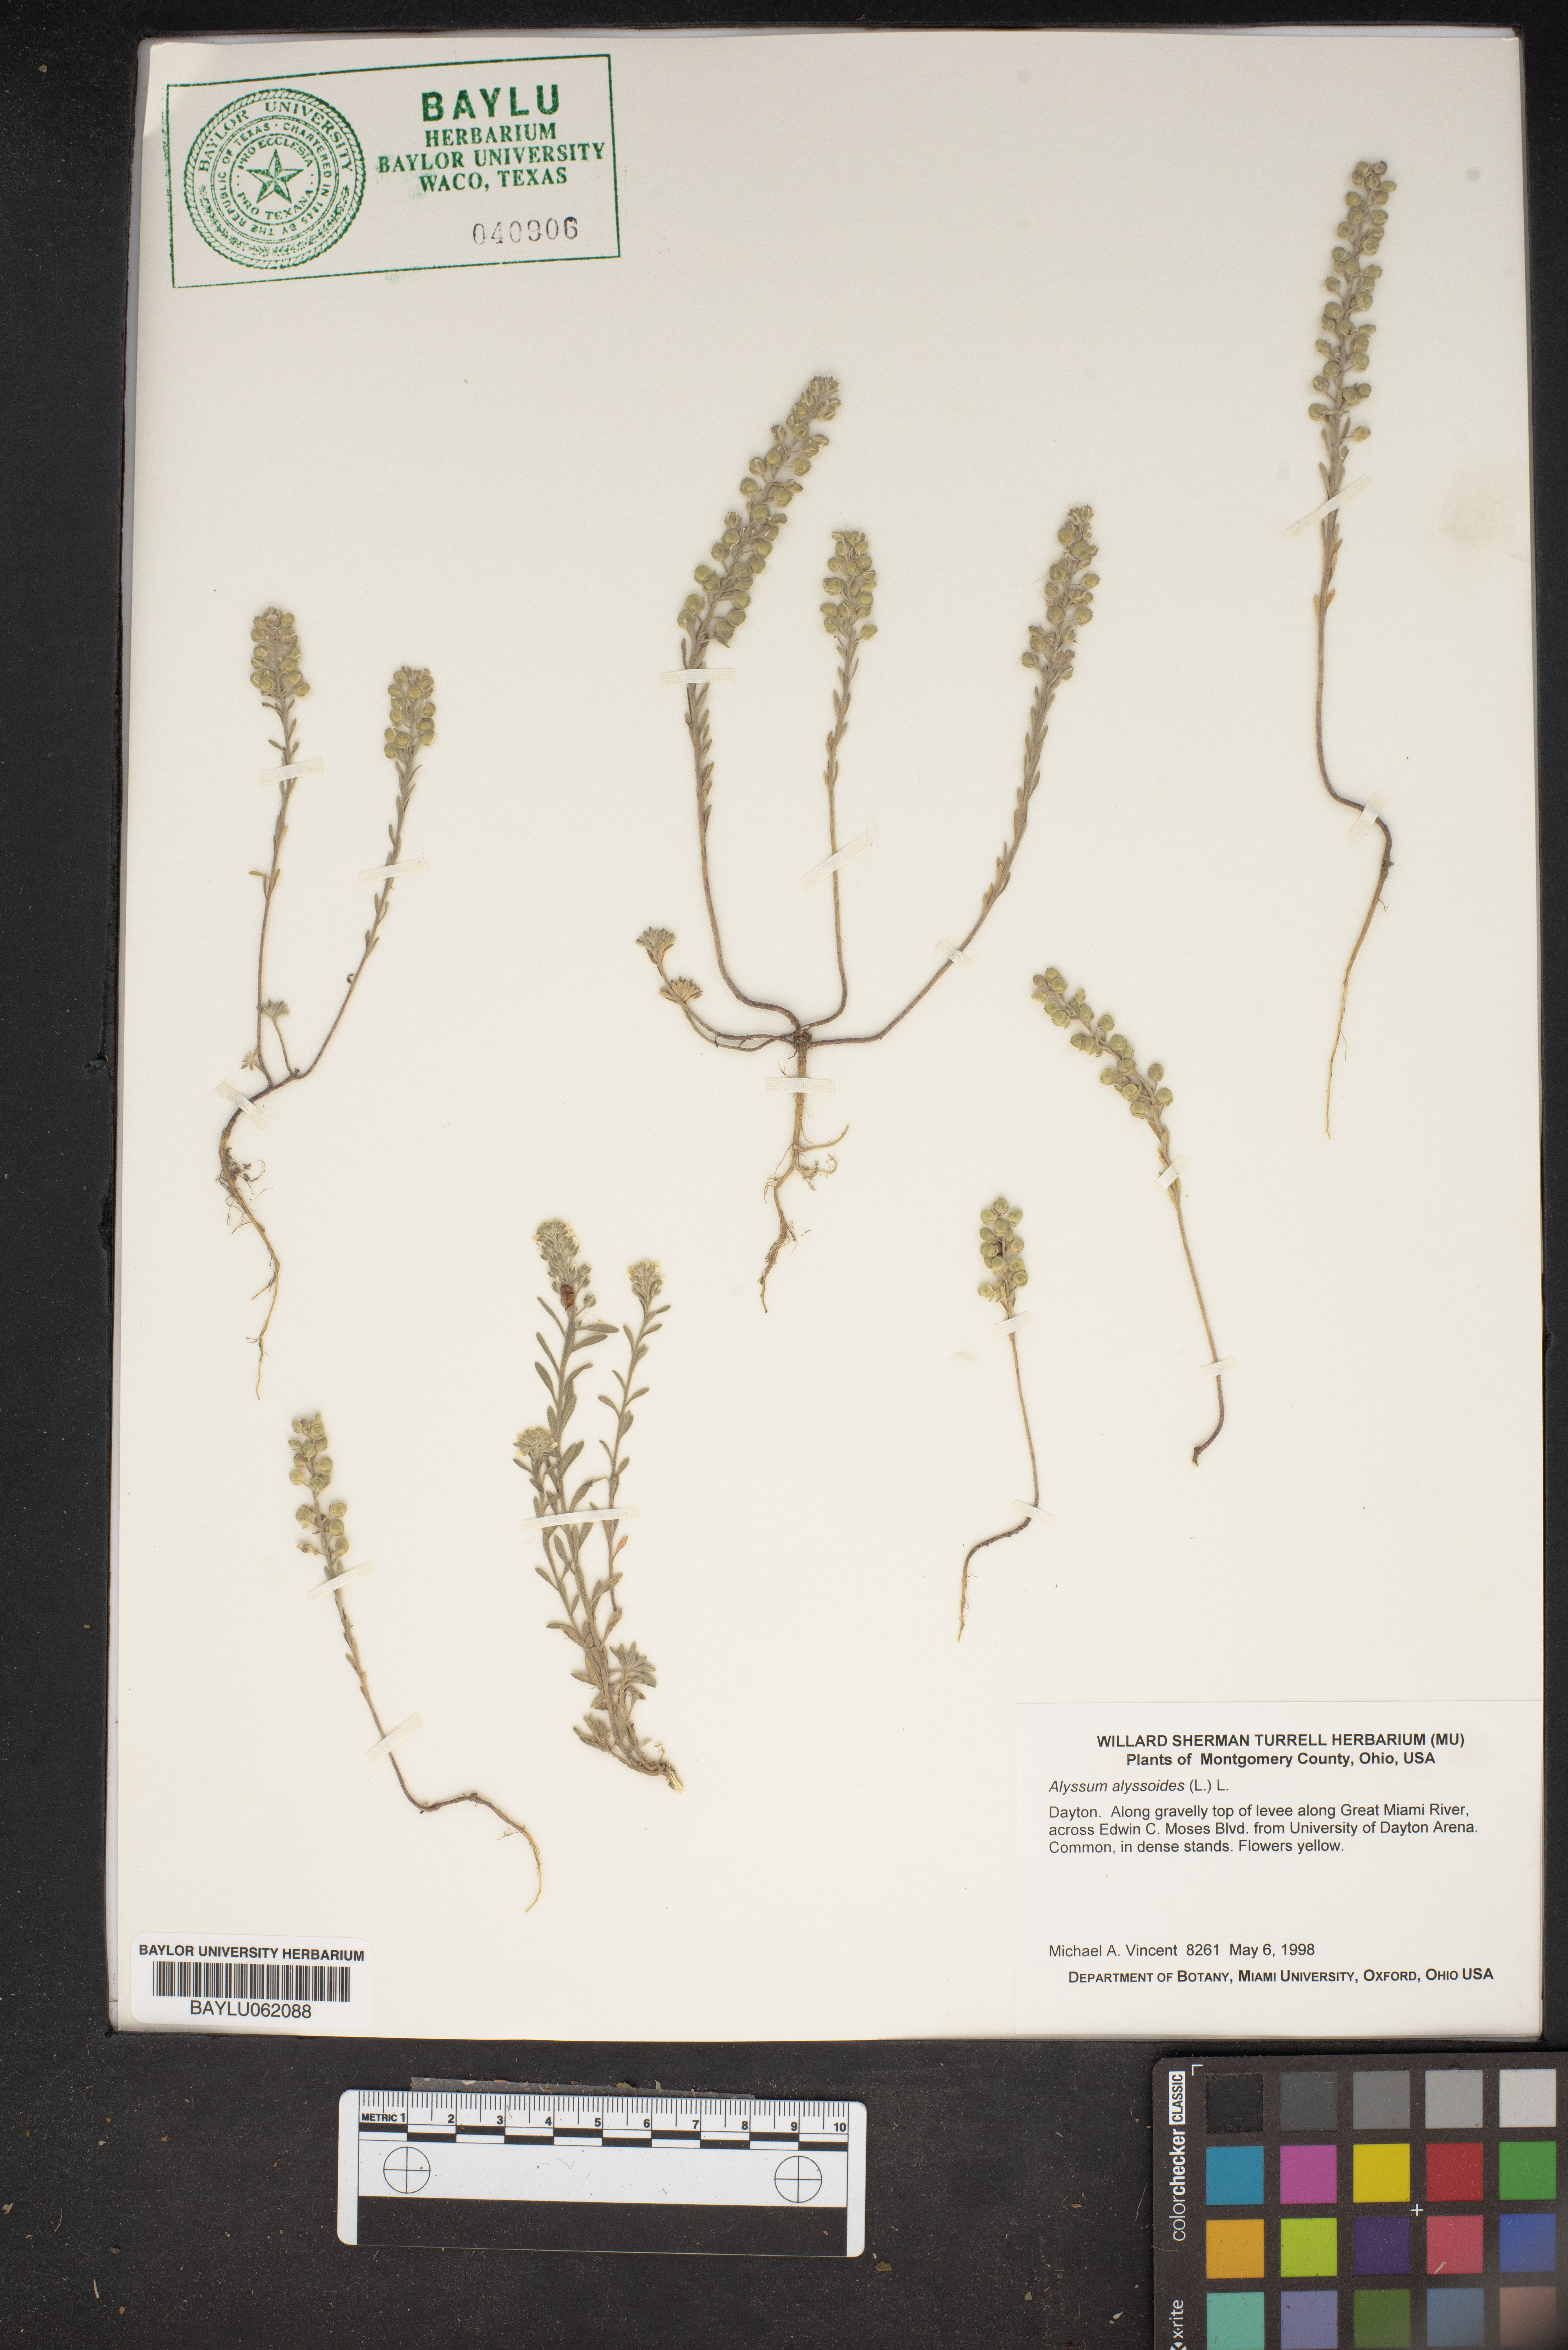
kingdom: Plantae
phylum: Tracheophyta
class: Magnoliopsida
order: Brassicales
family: Brassicaceae
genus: Alyssum
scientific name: Alyssum alyssoides
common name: Small alison
